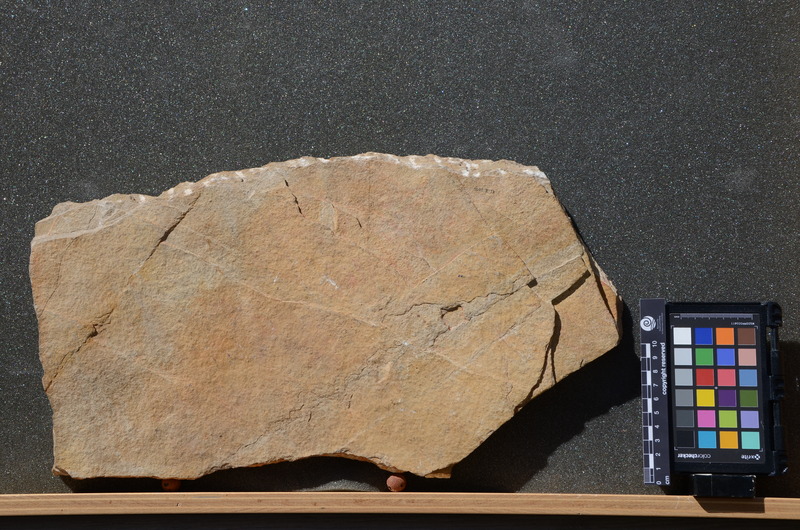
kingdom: Animalia
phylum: Chordata
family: Aspidorhynchidae
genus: Belonostomus
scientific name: Belonostomus novaki
